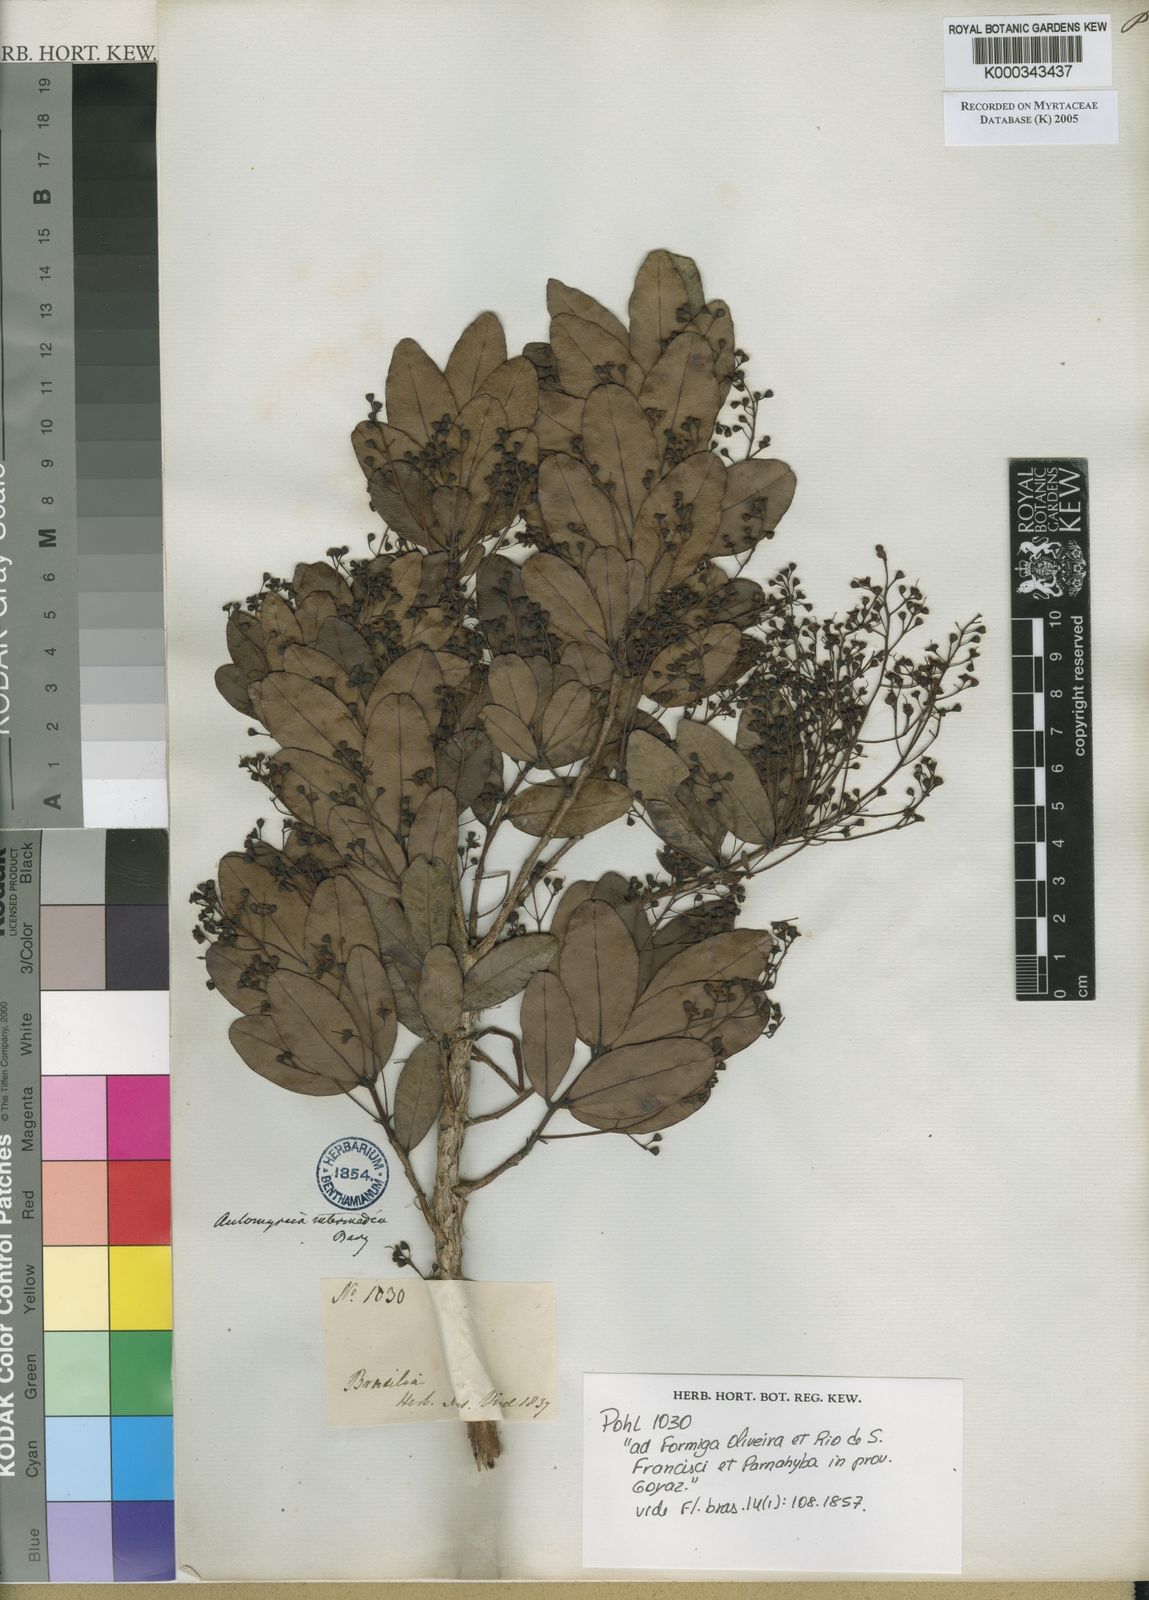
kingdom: Plantae
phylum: Tracheophyta
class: Magnoliopsida
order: Myrtales
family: Myrtaceae
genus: Myrcia
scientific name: Myrcia guianensis
